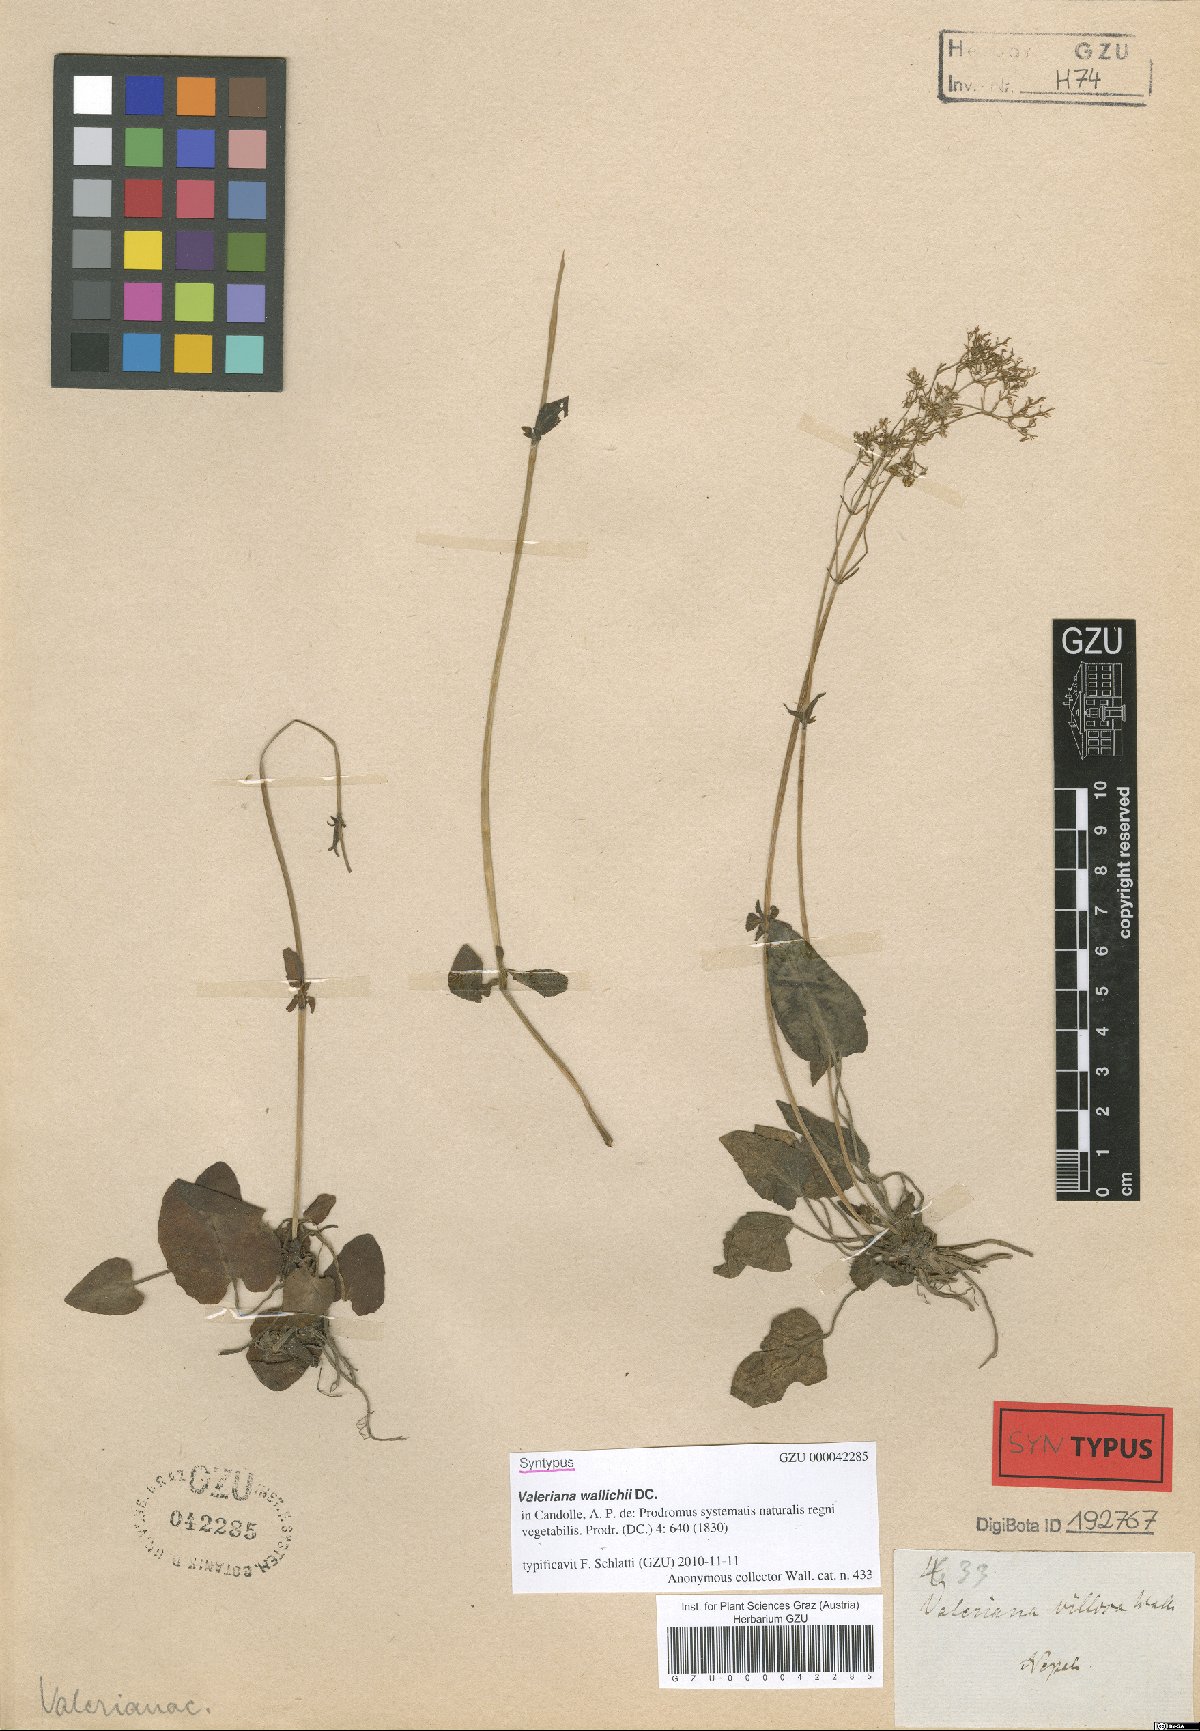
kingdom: Plantae
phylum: Tracheophyta
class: Magnoliopsida
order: Dipsacales
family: Caprifoliaceae
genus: Valeriana
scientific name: Valeriana jatamansi
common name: Indian valerian
